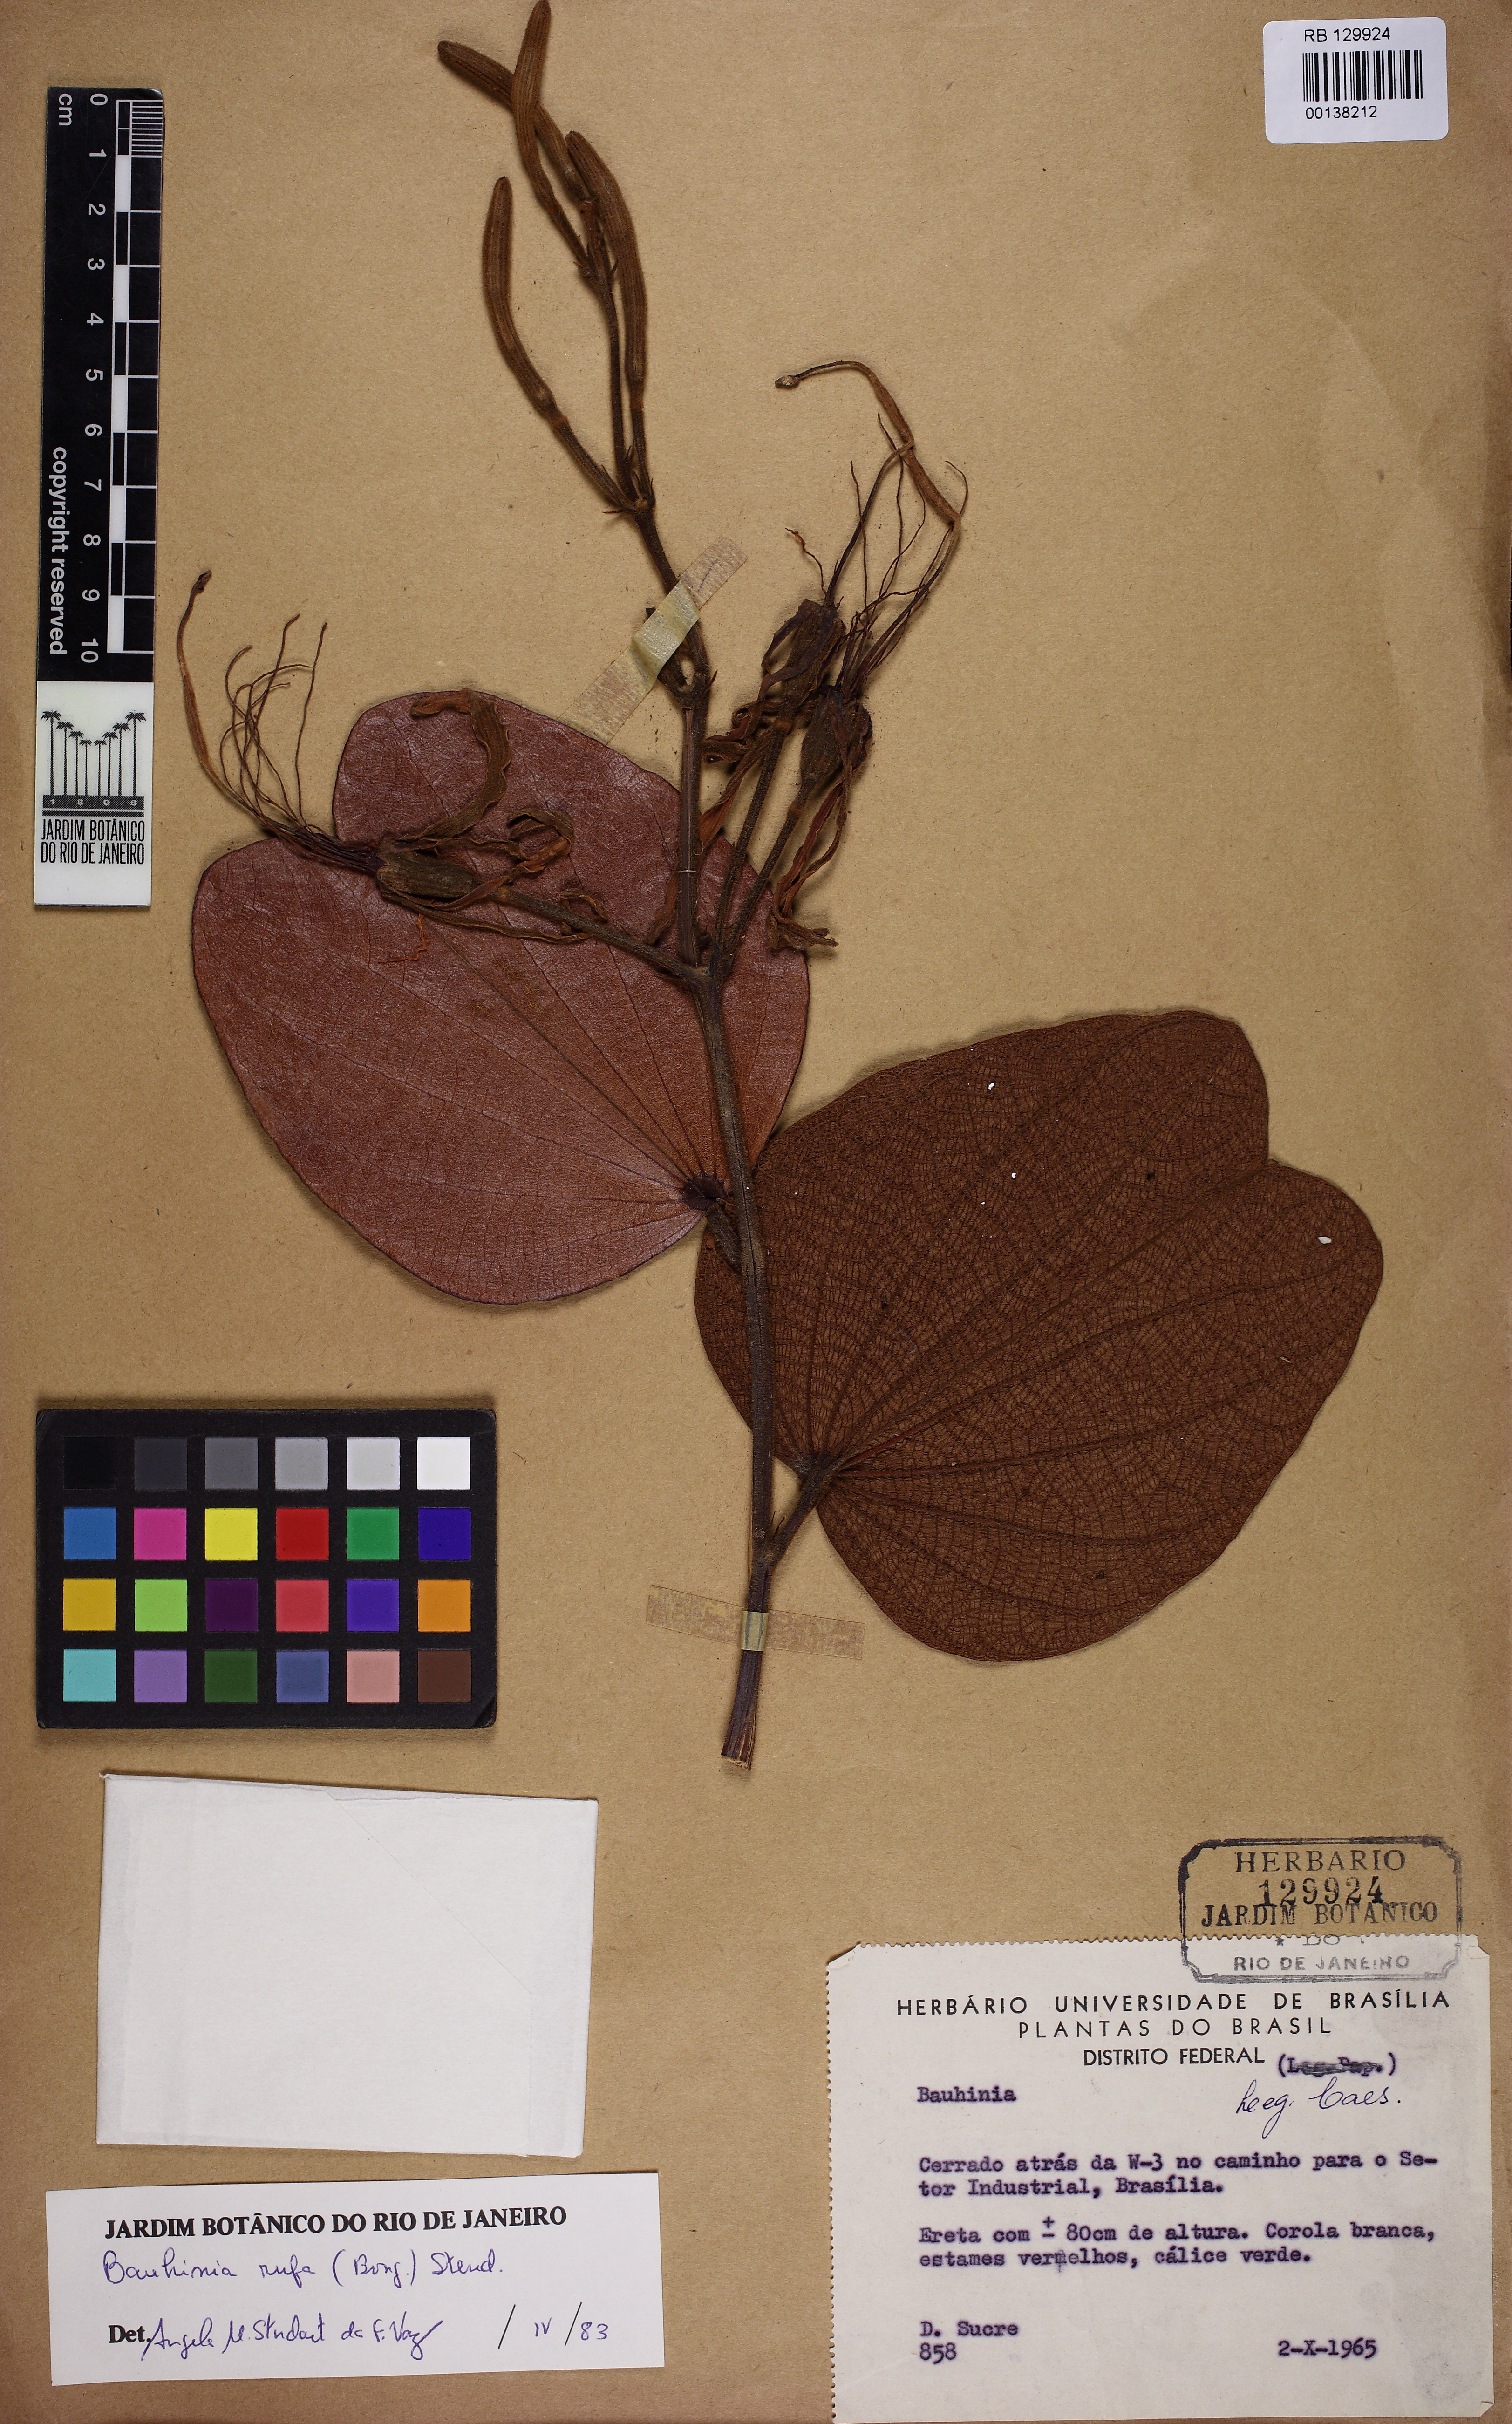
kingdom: Plantae
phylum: Tracheophyta
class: Magnoliopsida
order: Fabales
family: Fabaceae
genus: Bauhinia
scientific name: Bauhinia rufa
